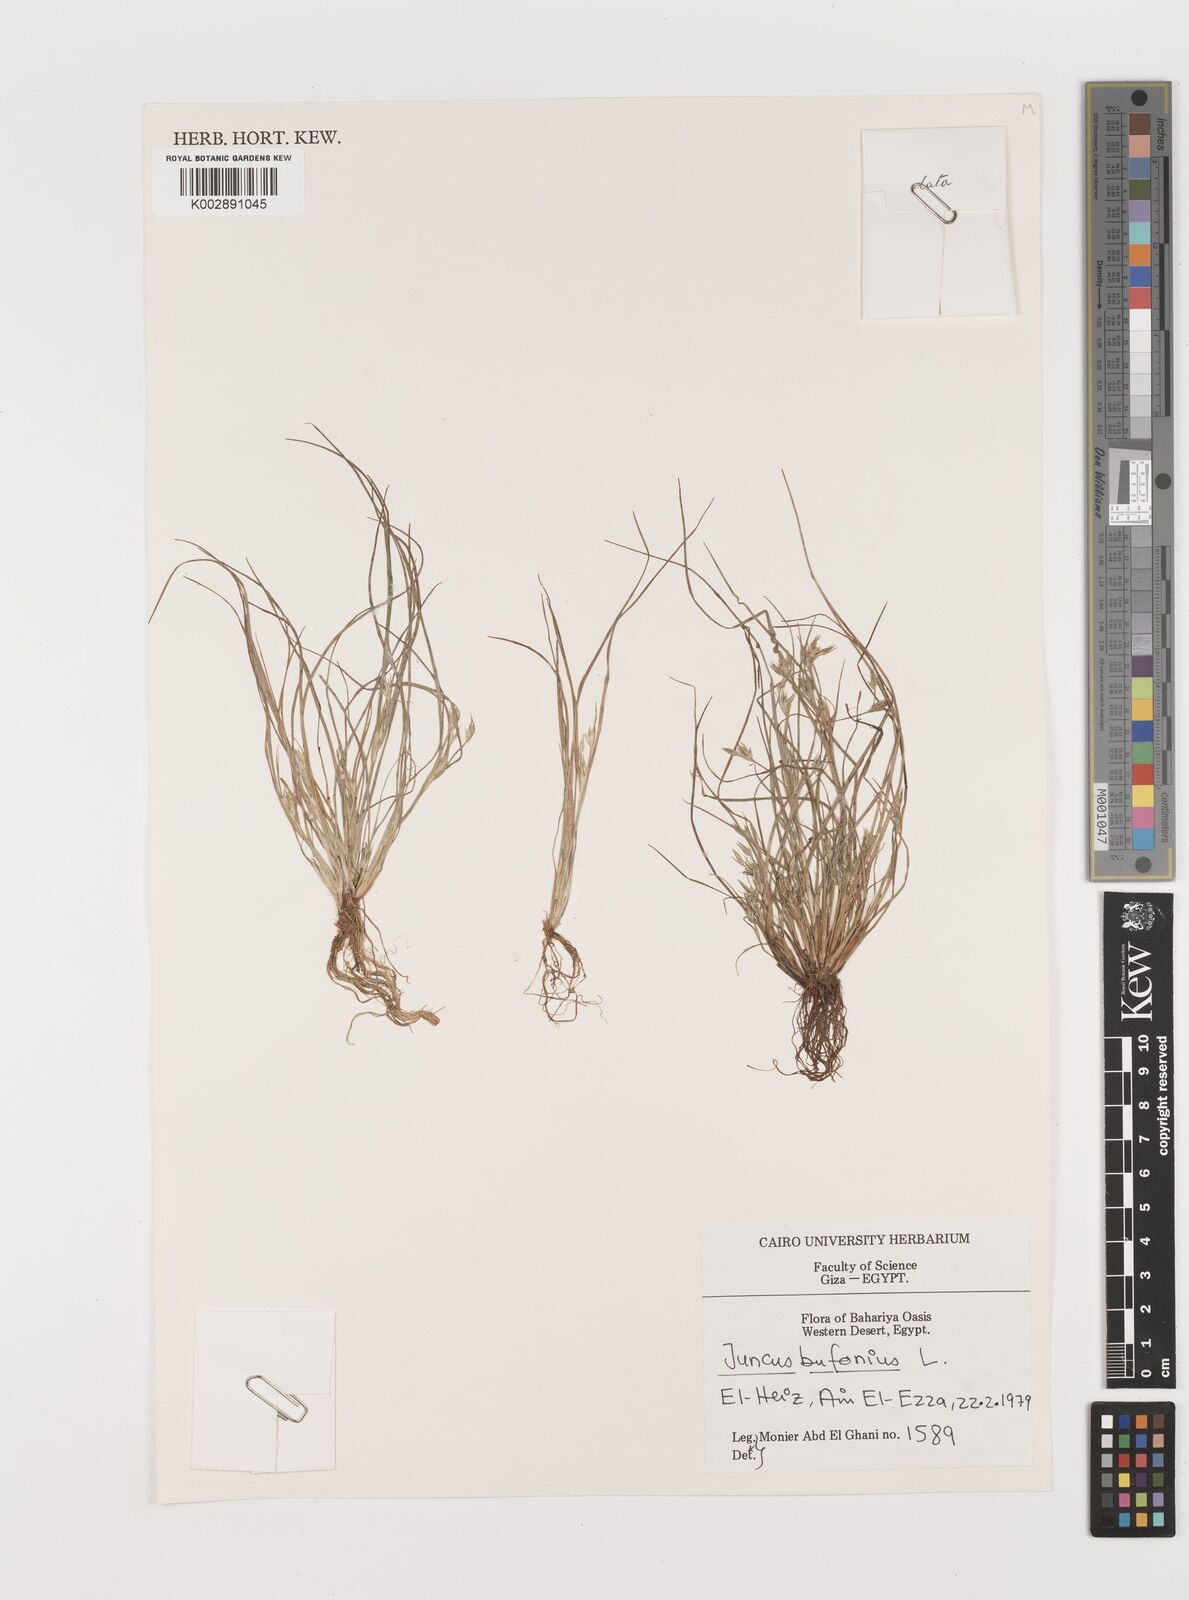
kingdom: Plantae
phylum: Tracheophyta
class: Liliopsida
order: Poales
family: Juncaceae
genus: Juncus
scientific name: Juncus bufonius
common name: Toad rush
